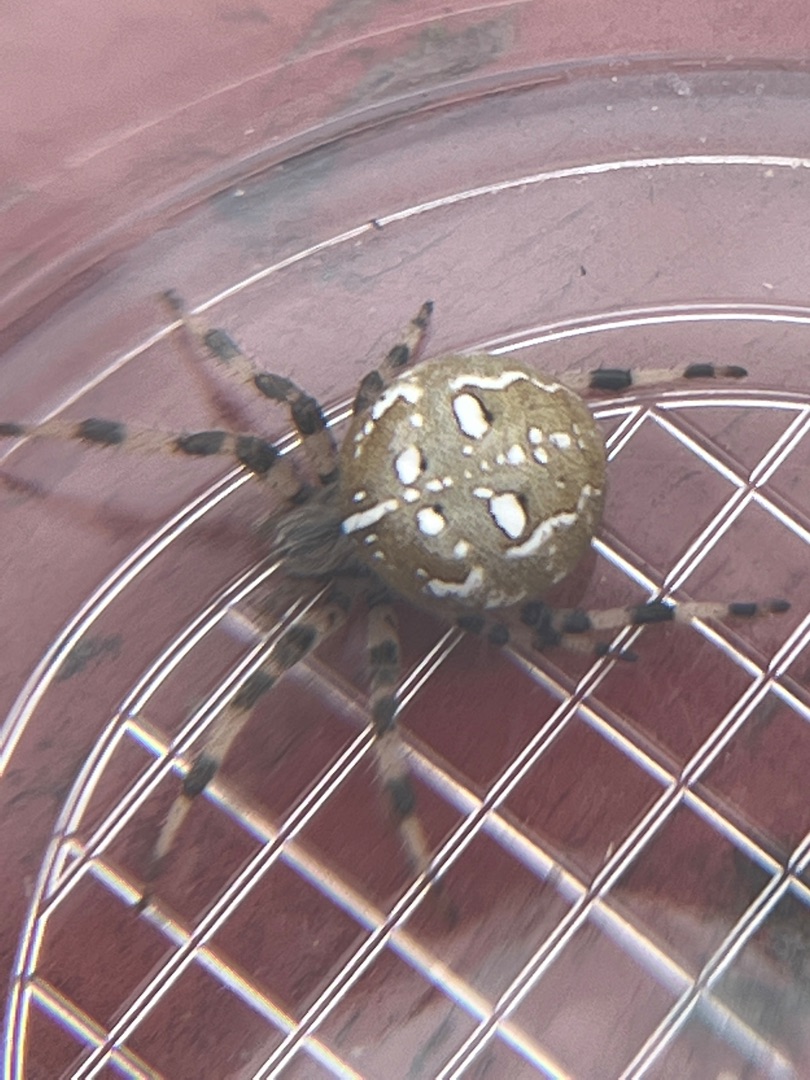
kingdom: Animalia
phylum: Arthropoda
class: Arachnida
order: Araneae
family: Araneidae
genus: Araneus
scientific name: Araneus quadratus
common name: Kvadratedderkop
